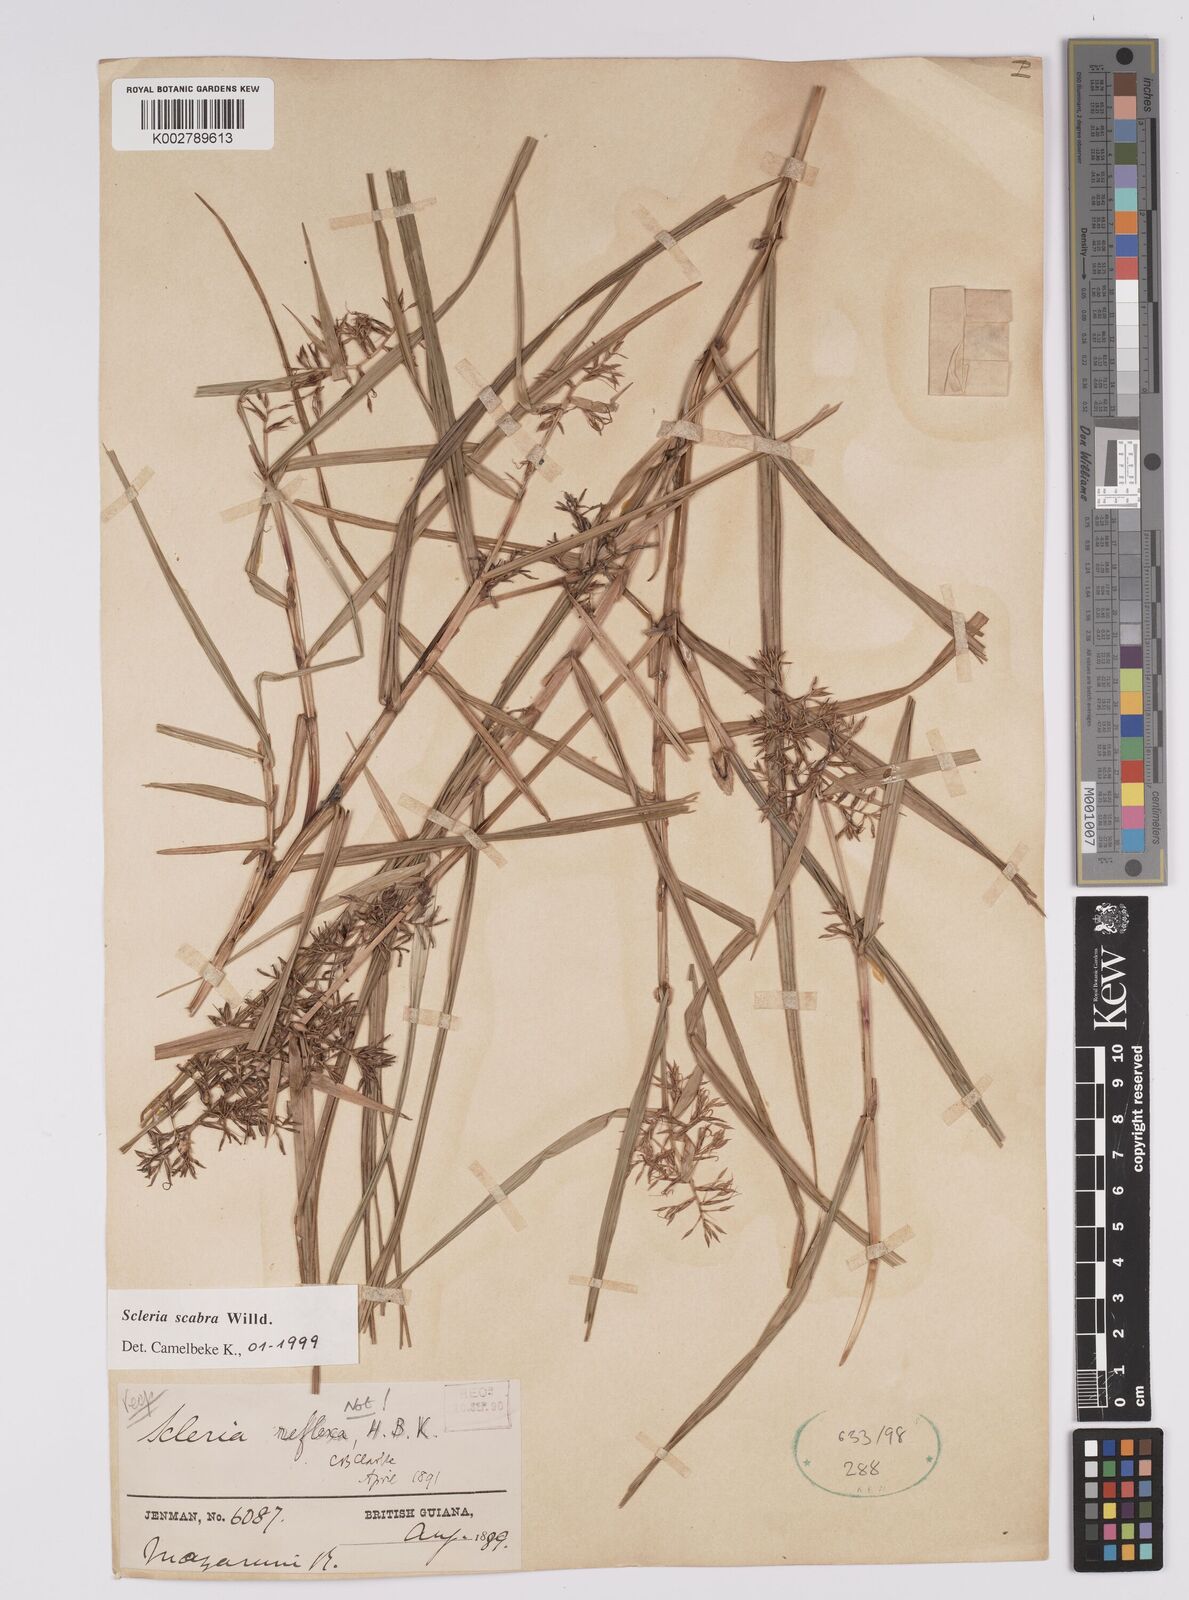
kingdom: Plantae
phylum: Tracheophyta
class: Liliopsida
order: Poales
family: Cyperaceae
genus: Scleria
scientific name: Scleria scabra
